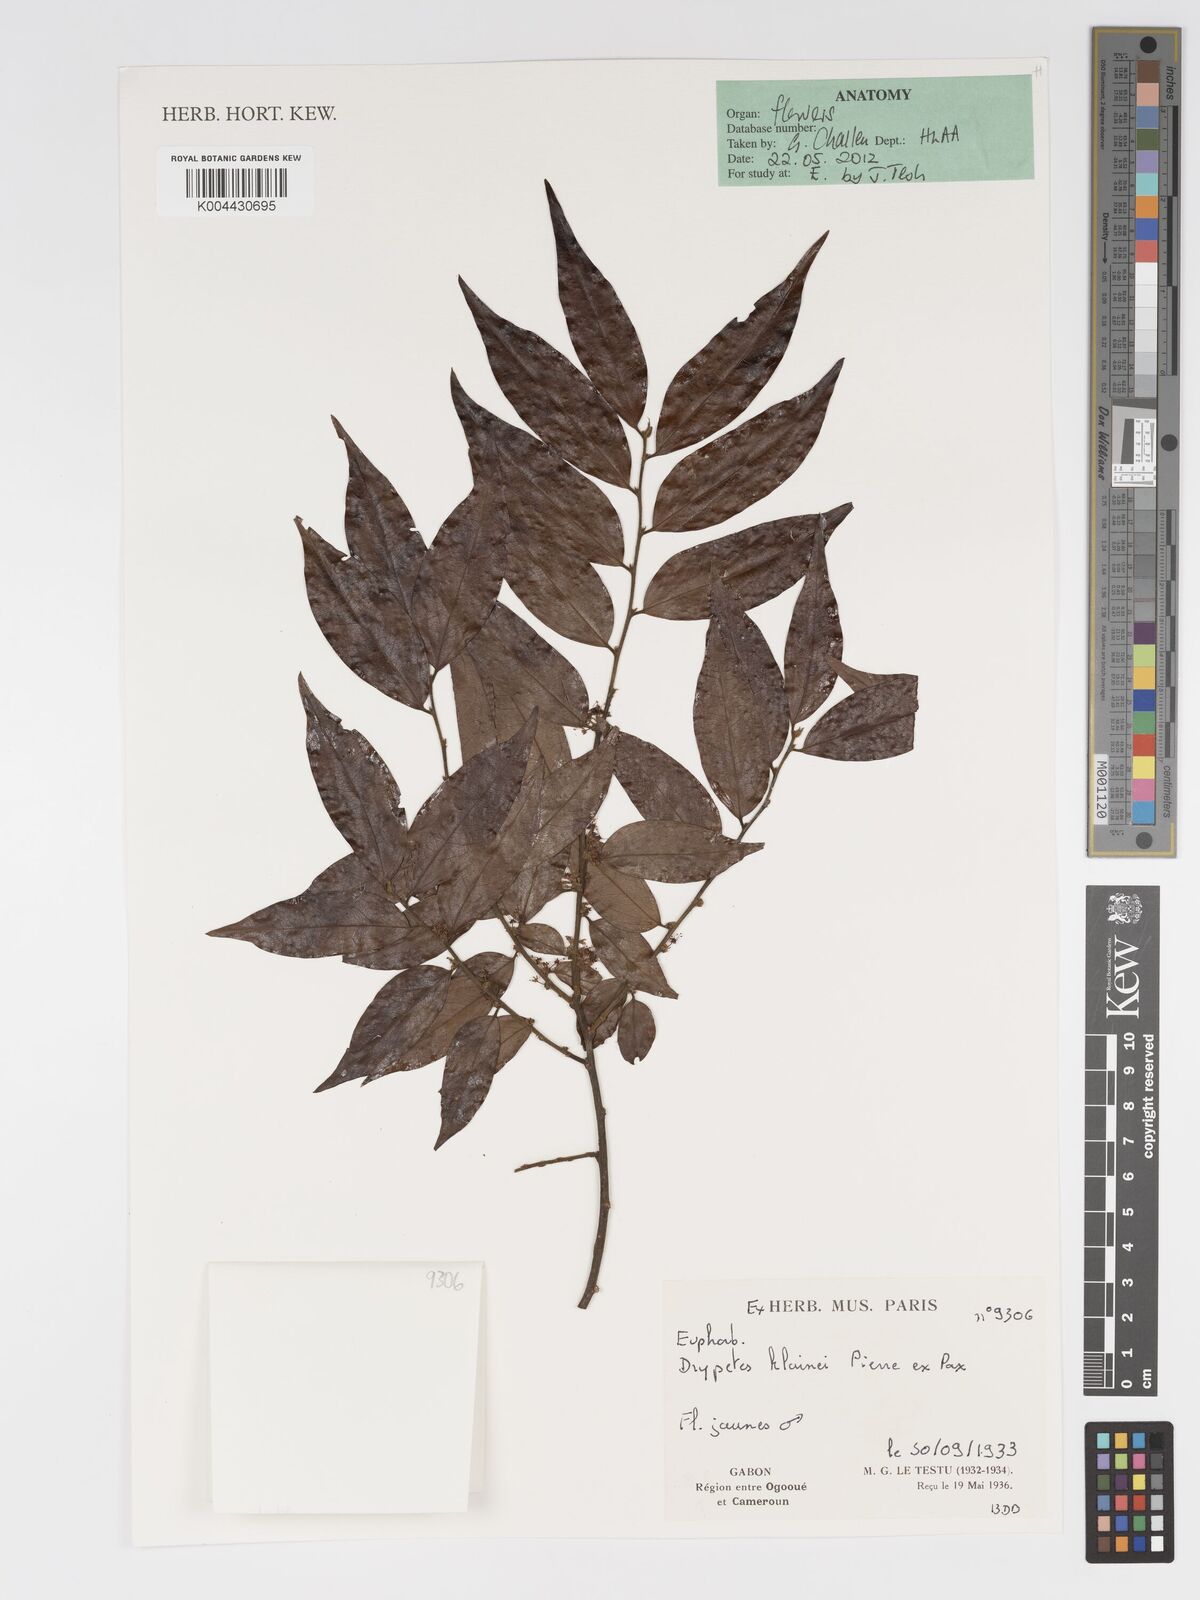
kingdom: Plantae
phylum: Tracheophyta
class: Magnoliopsida
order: Malpighiales
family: Putranjivaceae
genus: Drypetes
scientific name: Drypetes klainei
